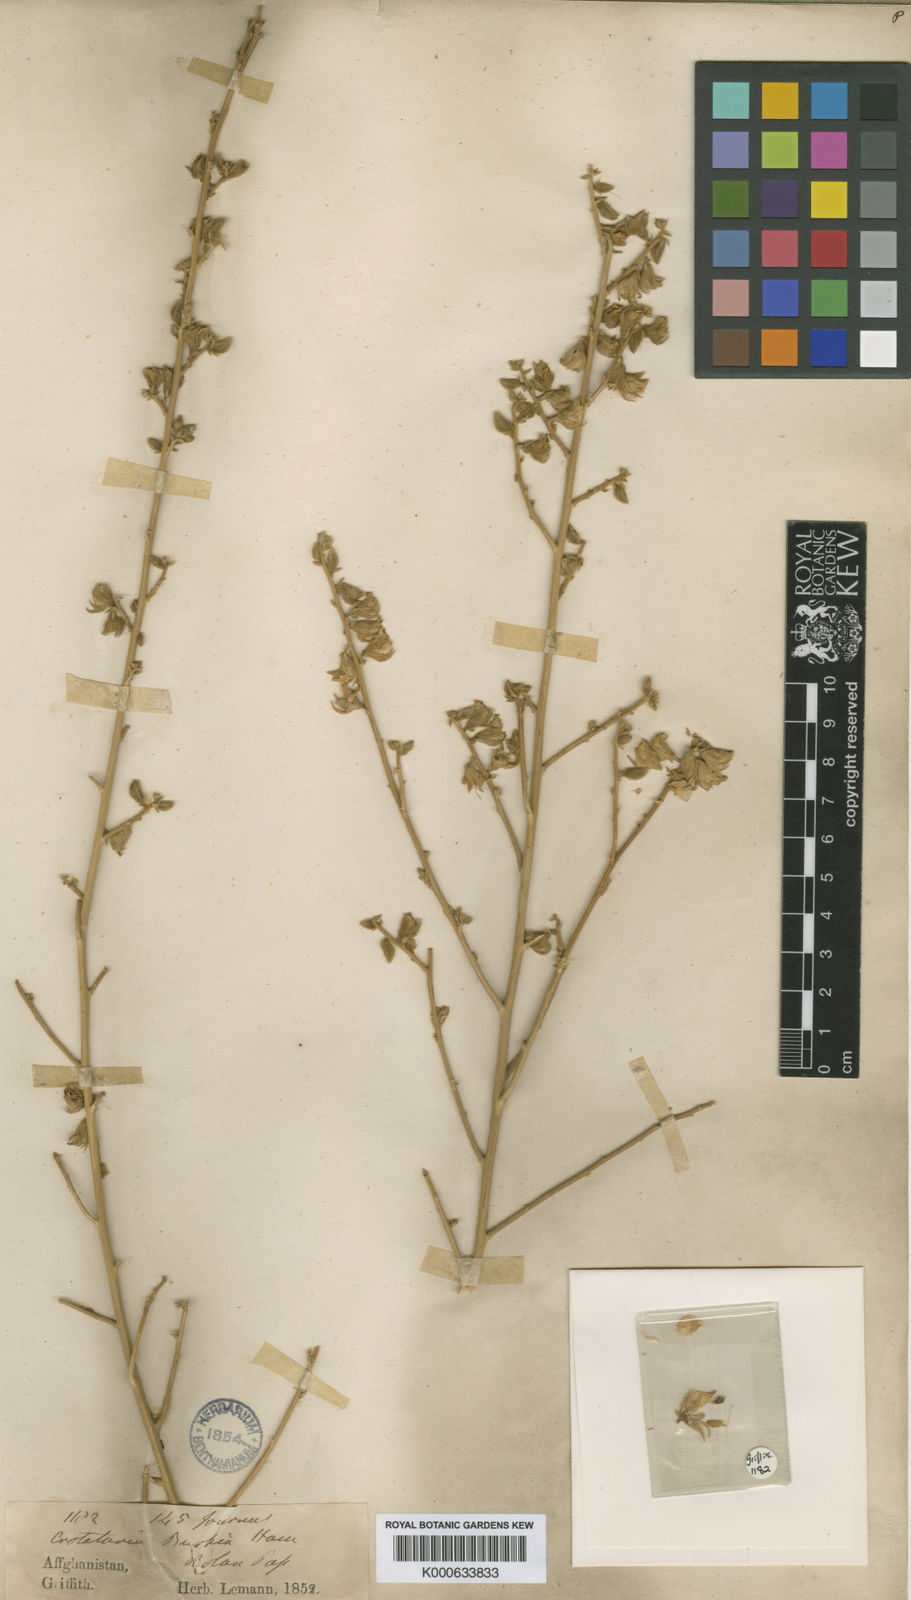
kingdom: Plantae
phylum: Tracheophyta
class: Magnoliopsida
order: Fabales
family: Fabaceae
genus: Crotalaria
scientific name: Crotalaria
